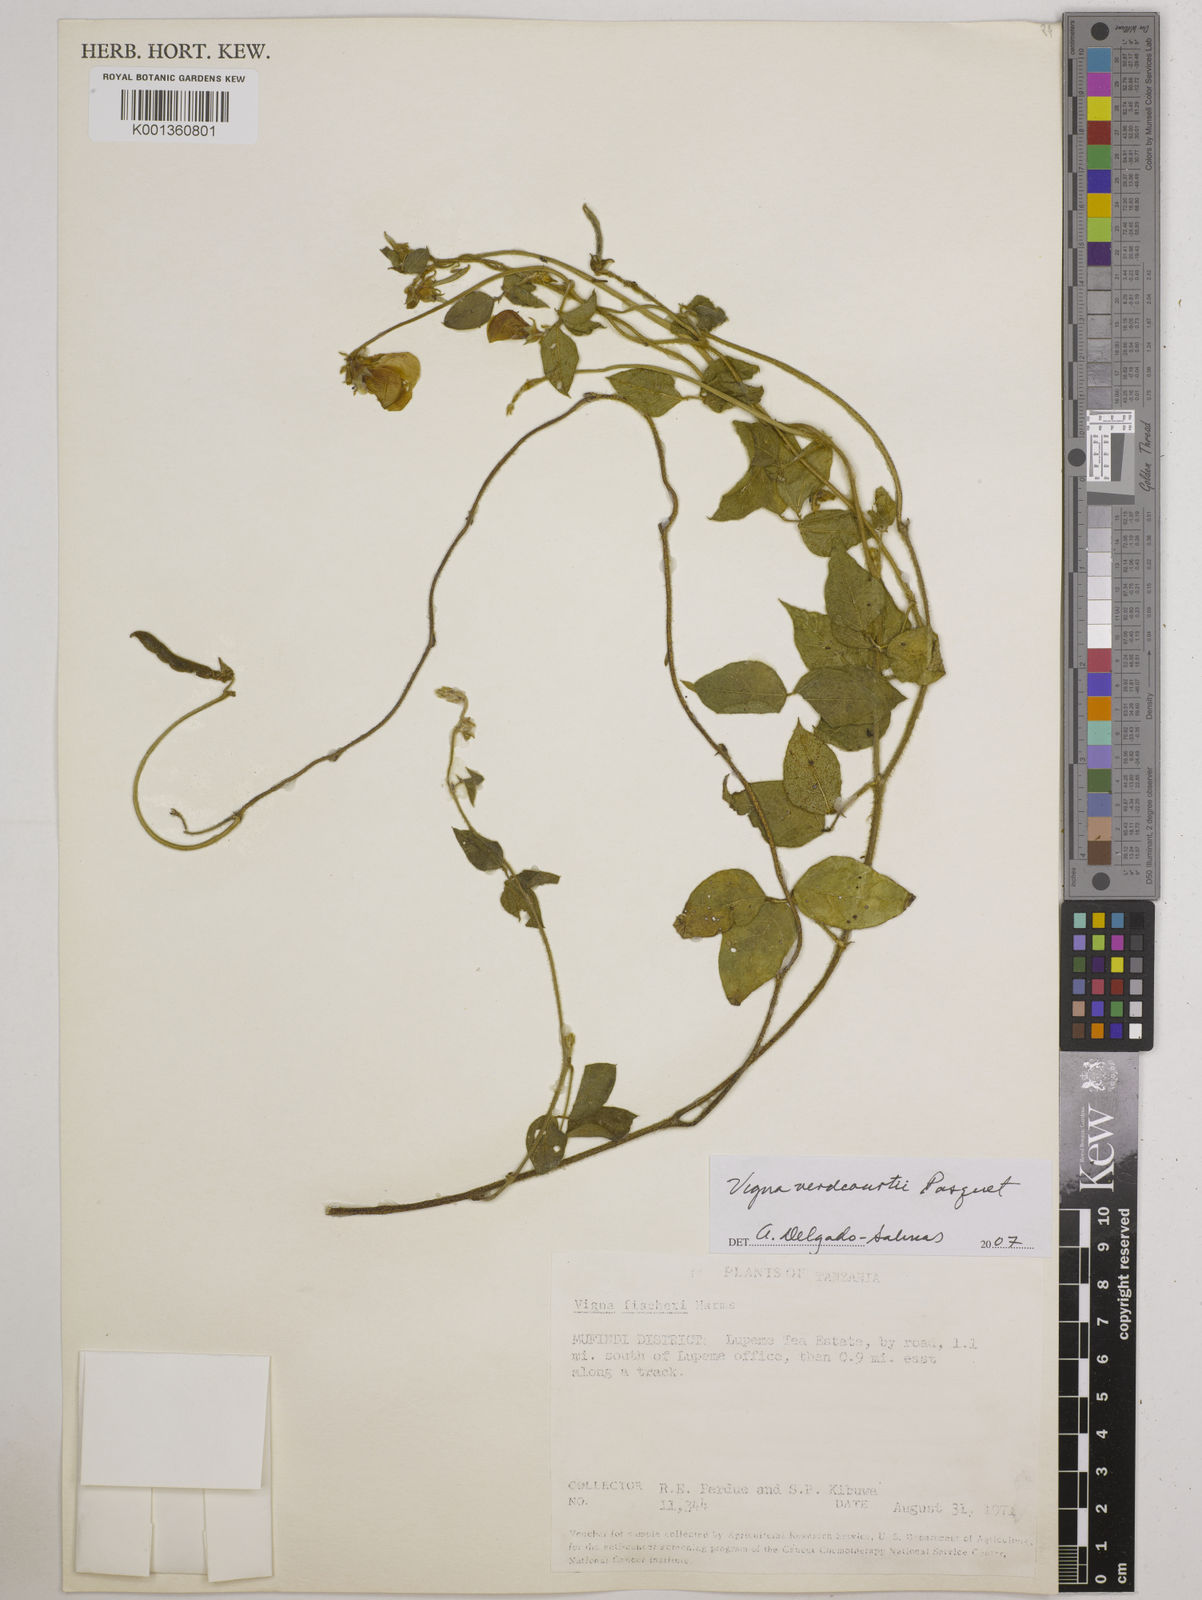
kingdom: Plantae
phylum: Tracheophyta
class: Magnoliopsida
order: Fabales
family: Fabaceae
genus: Vigna
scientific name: Vigna
